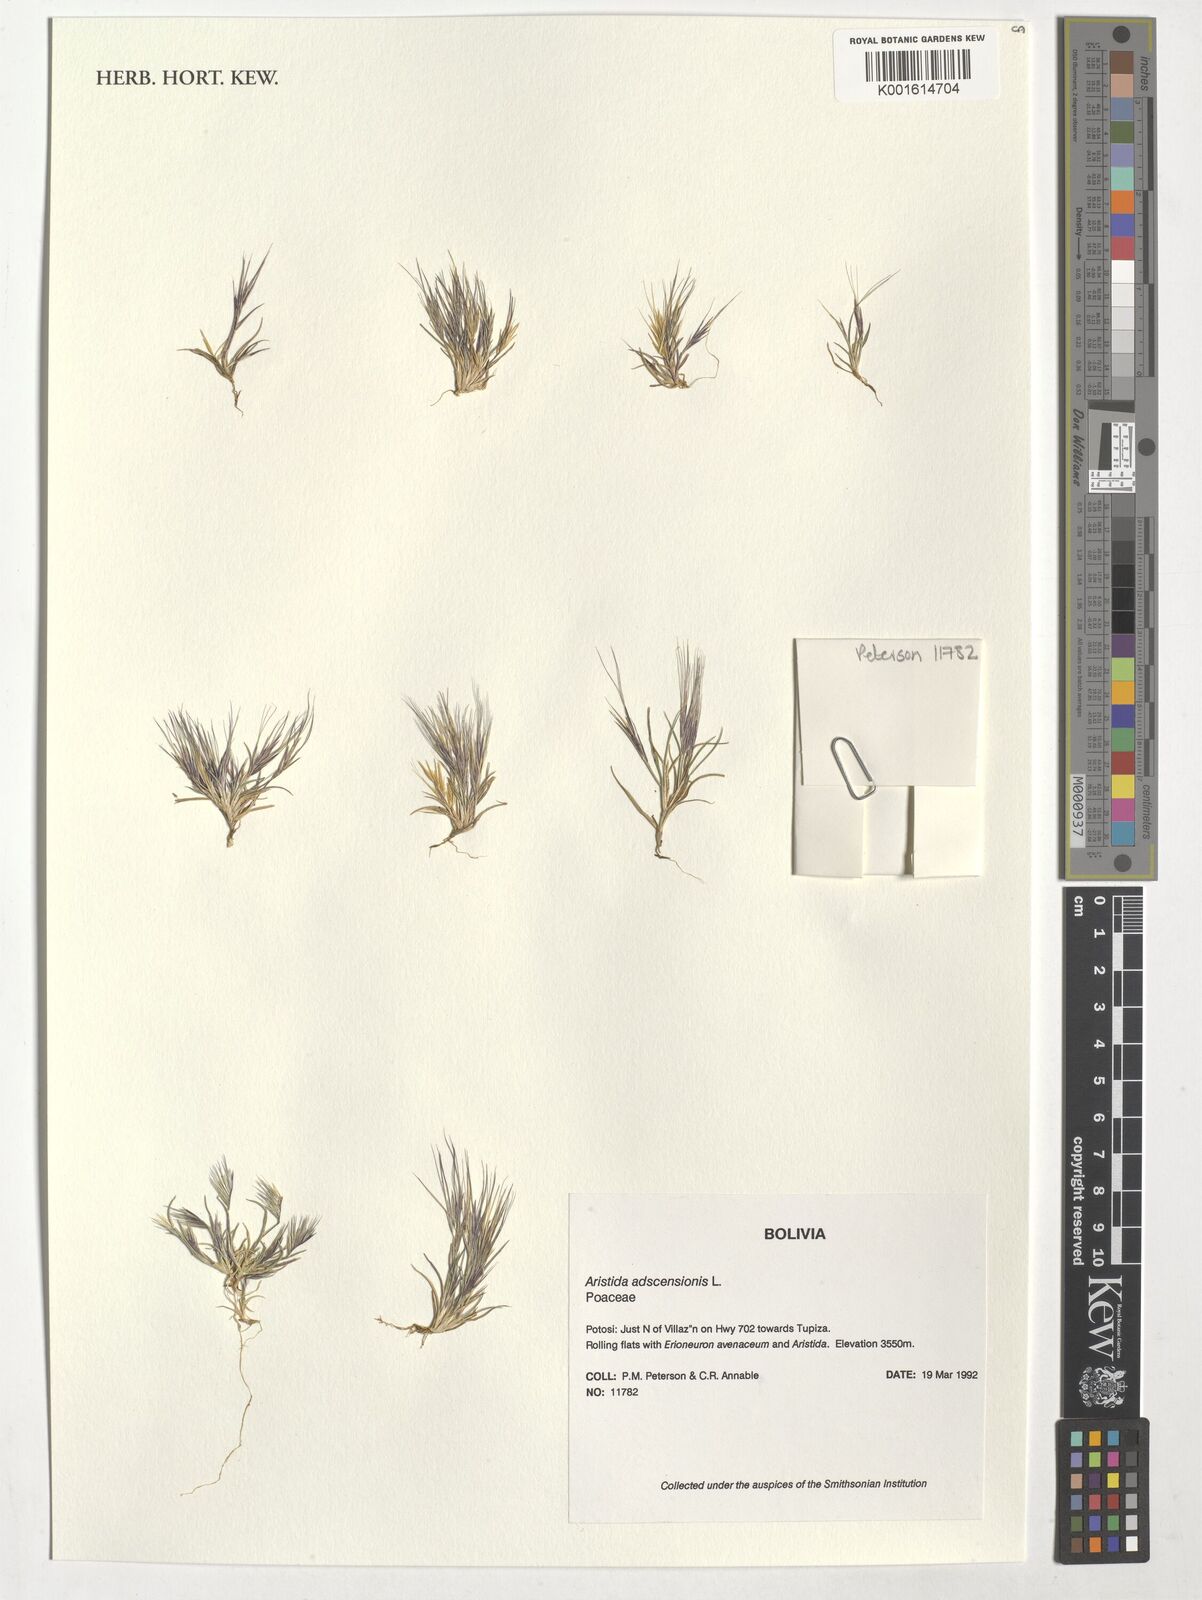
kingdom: Plantae
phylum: Tracheophyta
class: Liliopsida
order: Poales
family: Poaceae
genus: Aristida
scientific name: Aristida adscensionis
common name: Sixweeks threeawn
